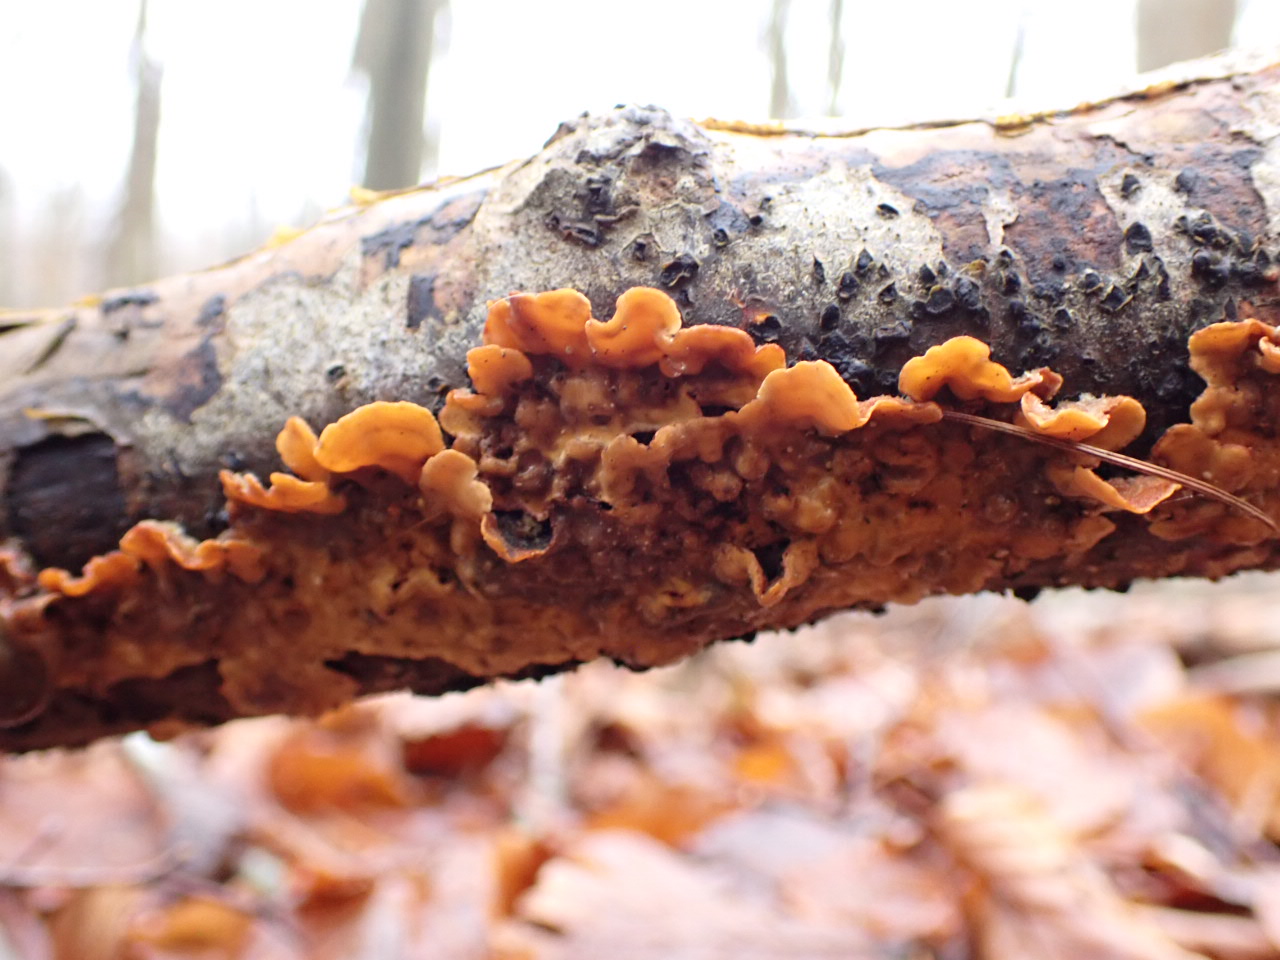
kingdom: Fungi
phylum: Basidiomycota
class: Agaricomycetes
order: Russulales
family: Stereaceae
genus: Stereum
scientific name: Stereum hirsutum
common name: håret lædersvamp
